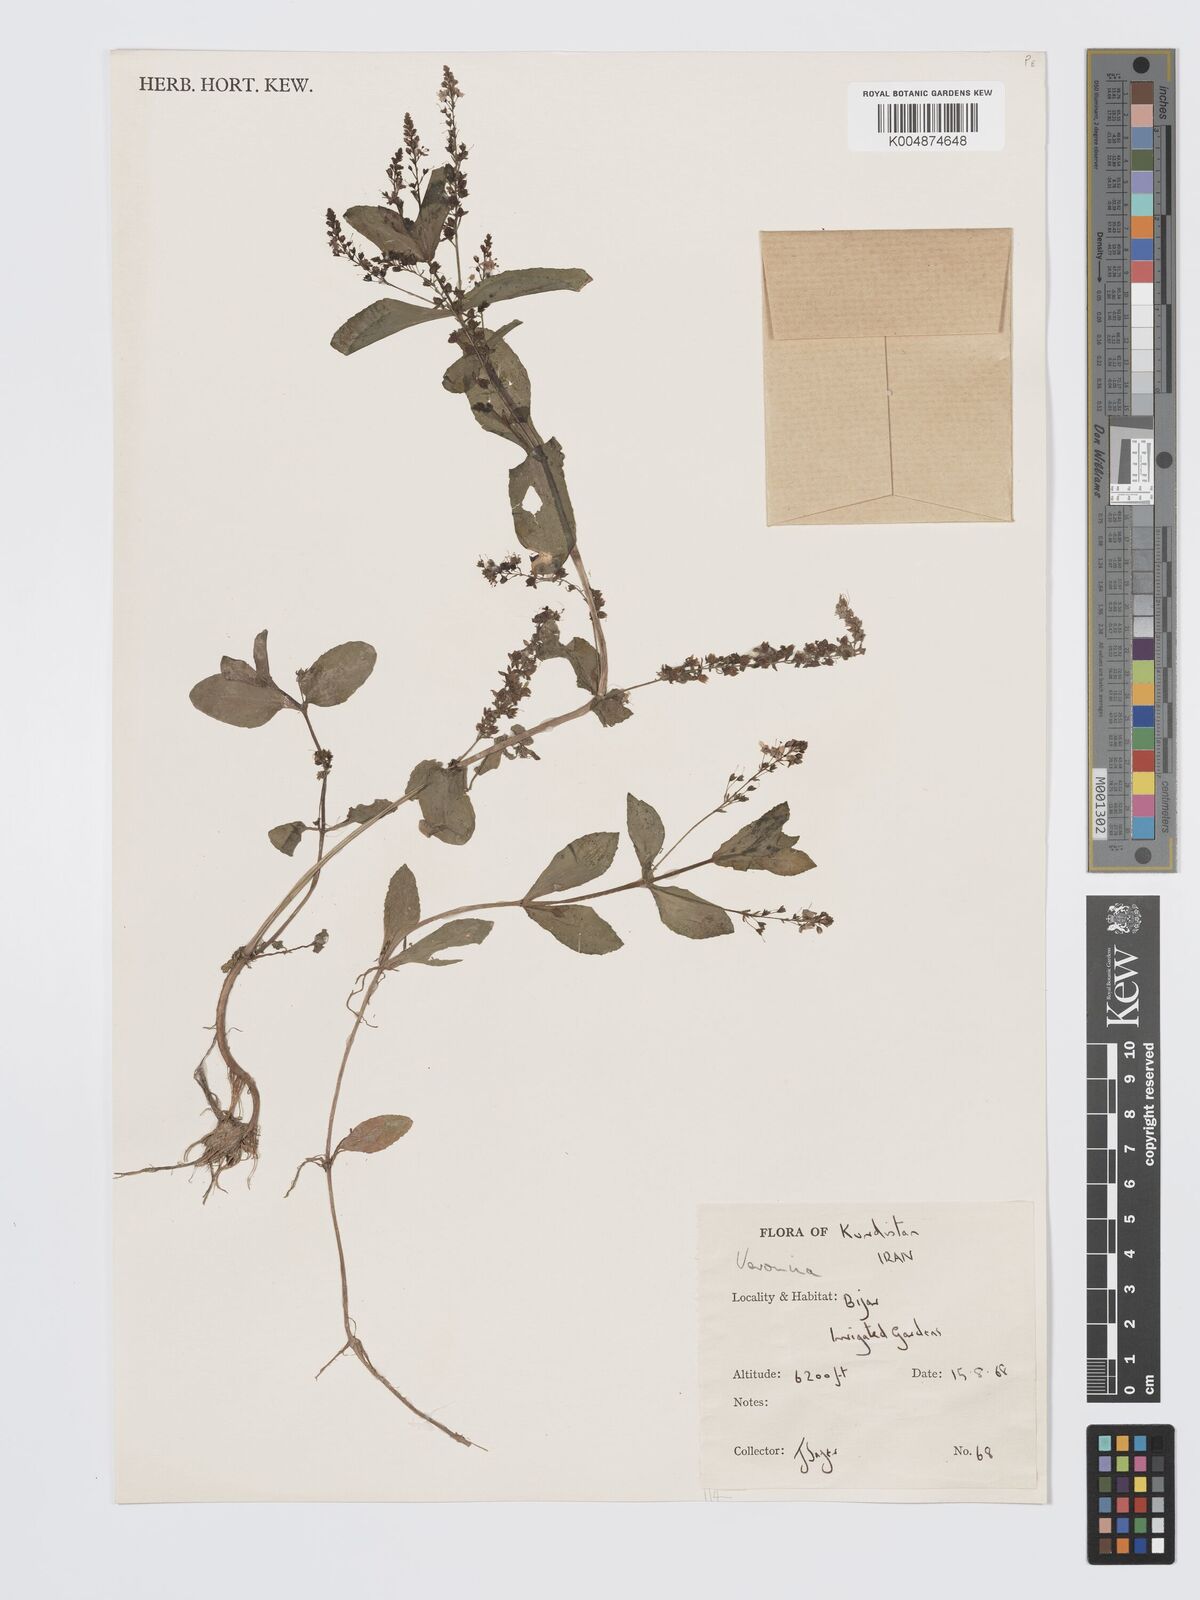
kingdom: Plantae
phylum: Tracheophyta
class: Magnoliopsida
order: Lamiales
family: Plantaginaceae
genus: Veronica
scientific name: Veronica
